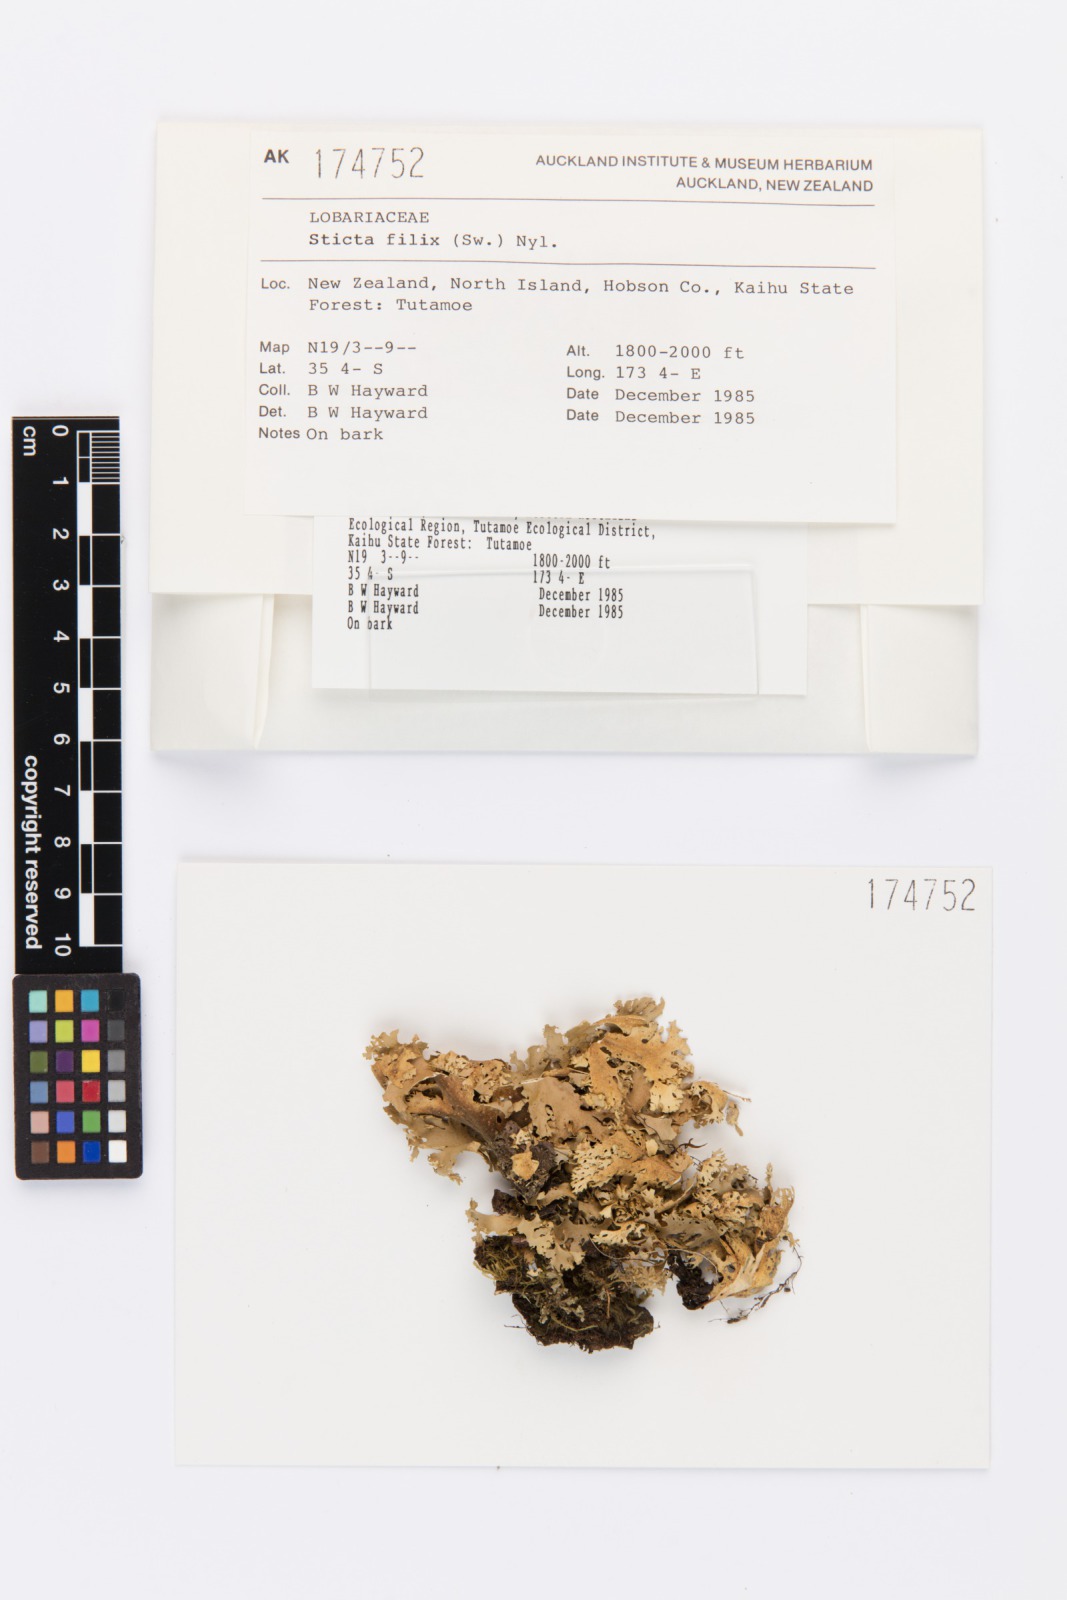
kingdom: Fungi
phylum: Ascomycota
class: Lecanoromycetes
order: Peltigerales
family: Lobariaceae
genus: Sticta
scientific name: Sticta filix
